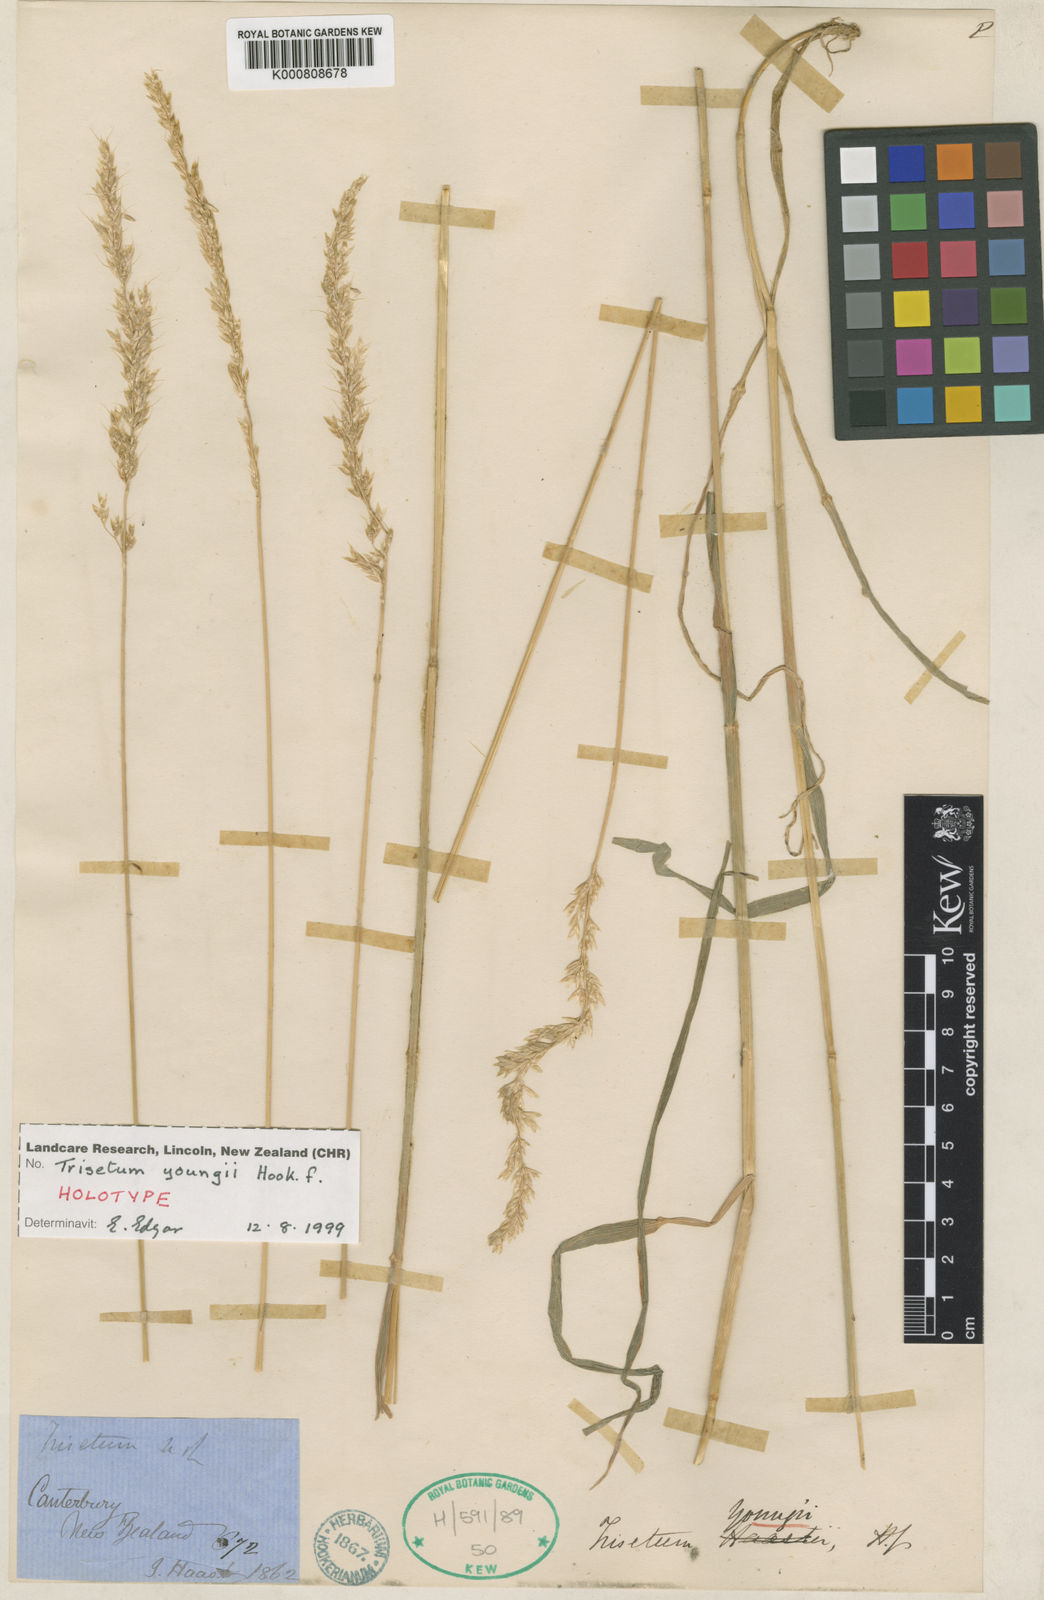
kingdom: Plantae
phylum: Tracheophyta
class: Liliopsida
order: Poales
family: Poaceae
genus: Koeleria
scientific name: Koeleria youngii
